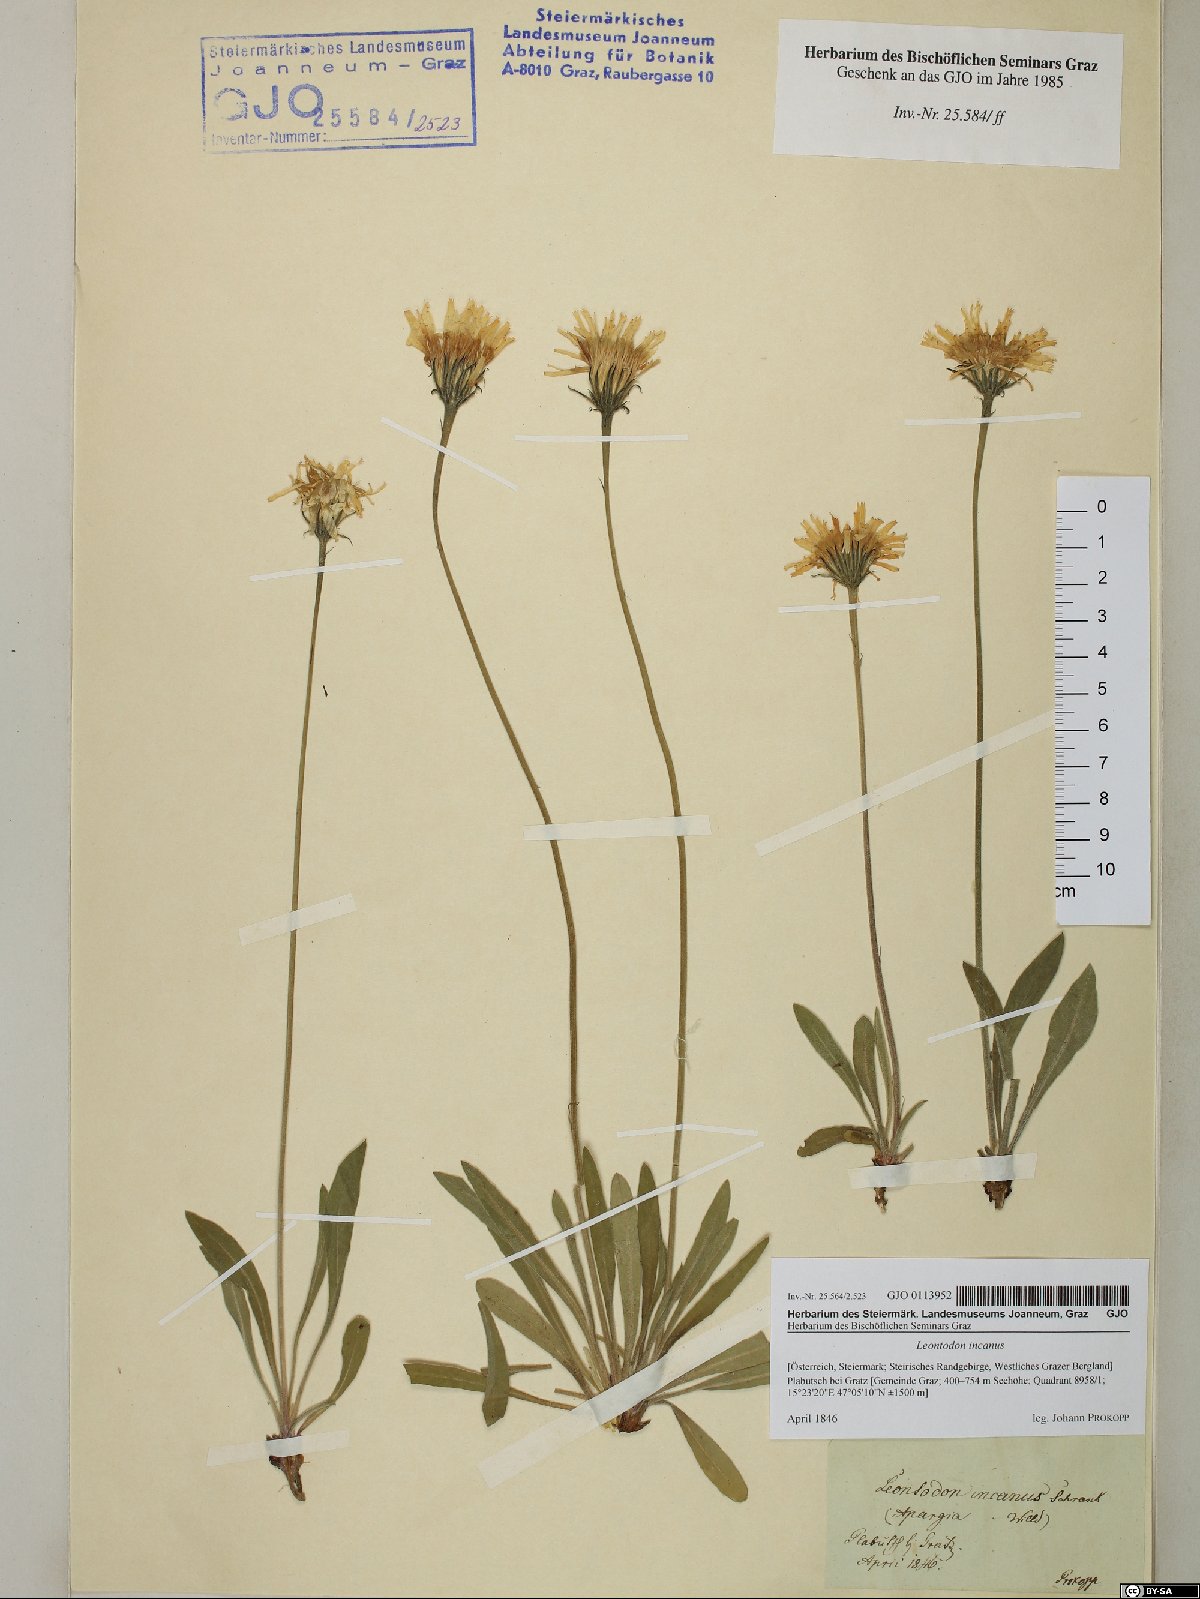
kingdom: Plantae
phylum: Tracheophyta
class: Magnoliopsida
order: Asterales
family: Asteraceae
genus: Leontodon
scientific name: Leontodon incanus
